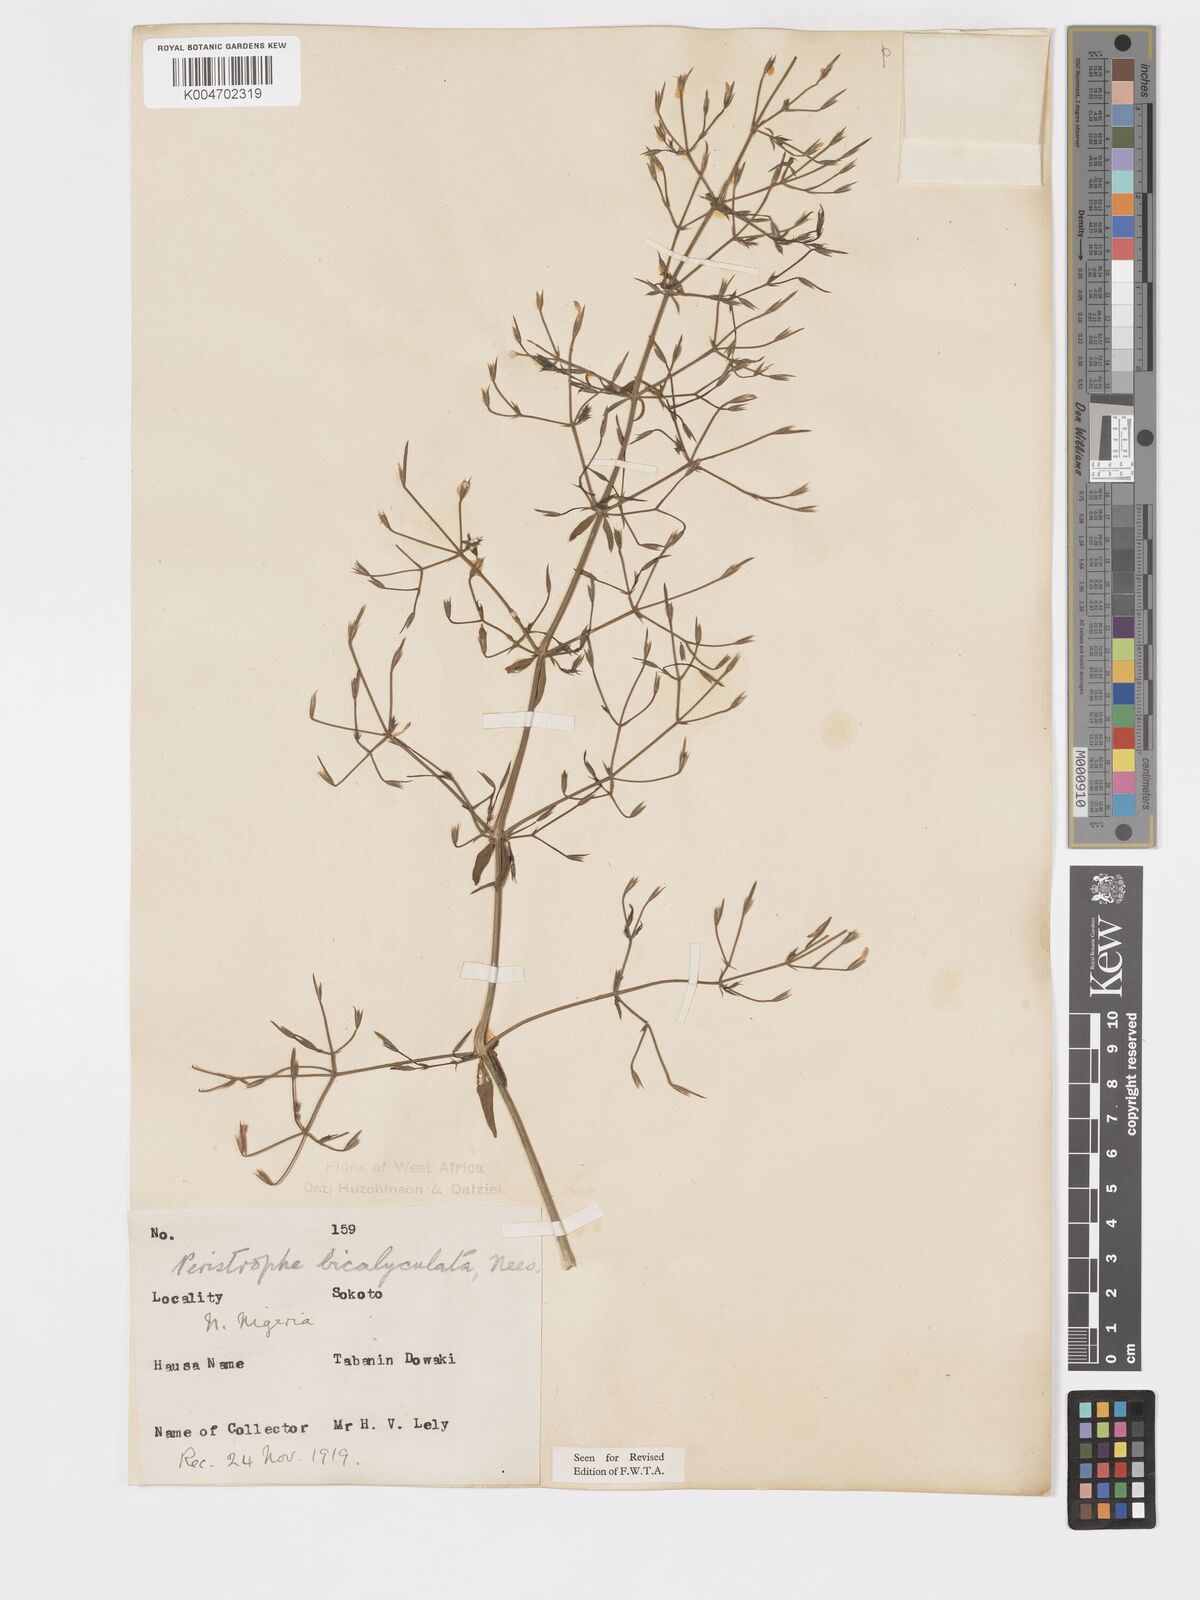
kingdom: Plantae
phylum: Tracheophyta
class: Magnoliopsida
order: Lamiales
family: Acanthaceae
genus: Dicliptera
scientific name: Dicliptera paniculata
